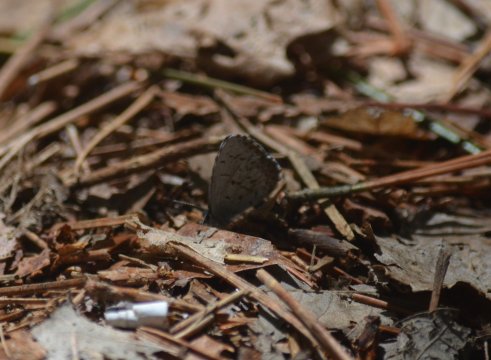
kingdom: Animalia
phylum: Arthropoda
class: Insecta
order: Lepidoptera
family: Lycaenidae
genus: Celastrina
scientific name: Celastrina lucia
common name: Northern Spring Azure
